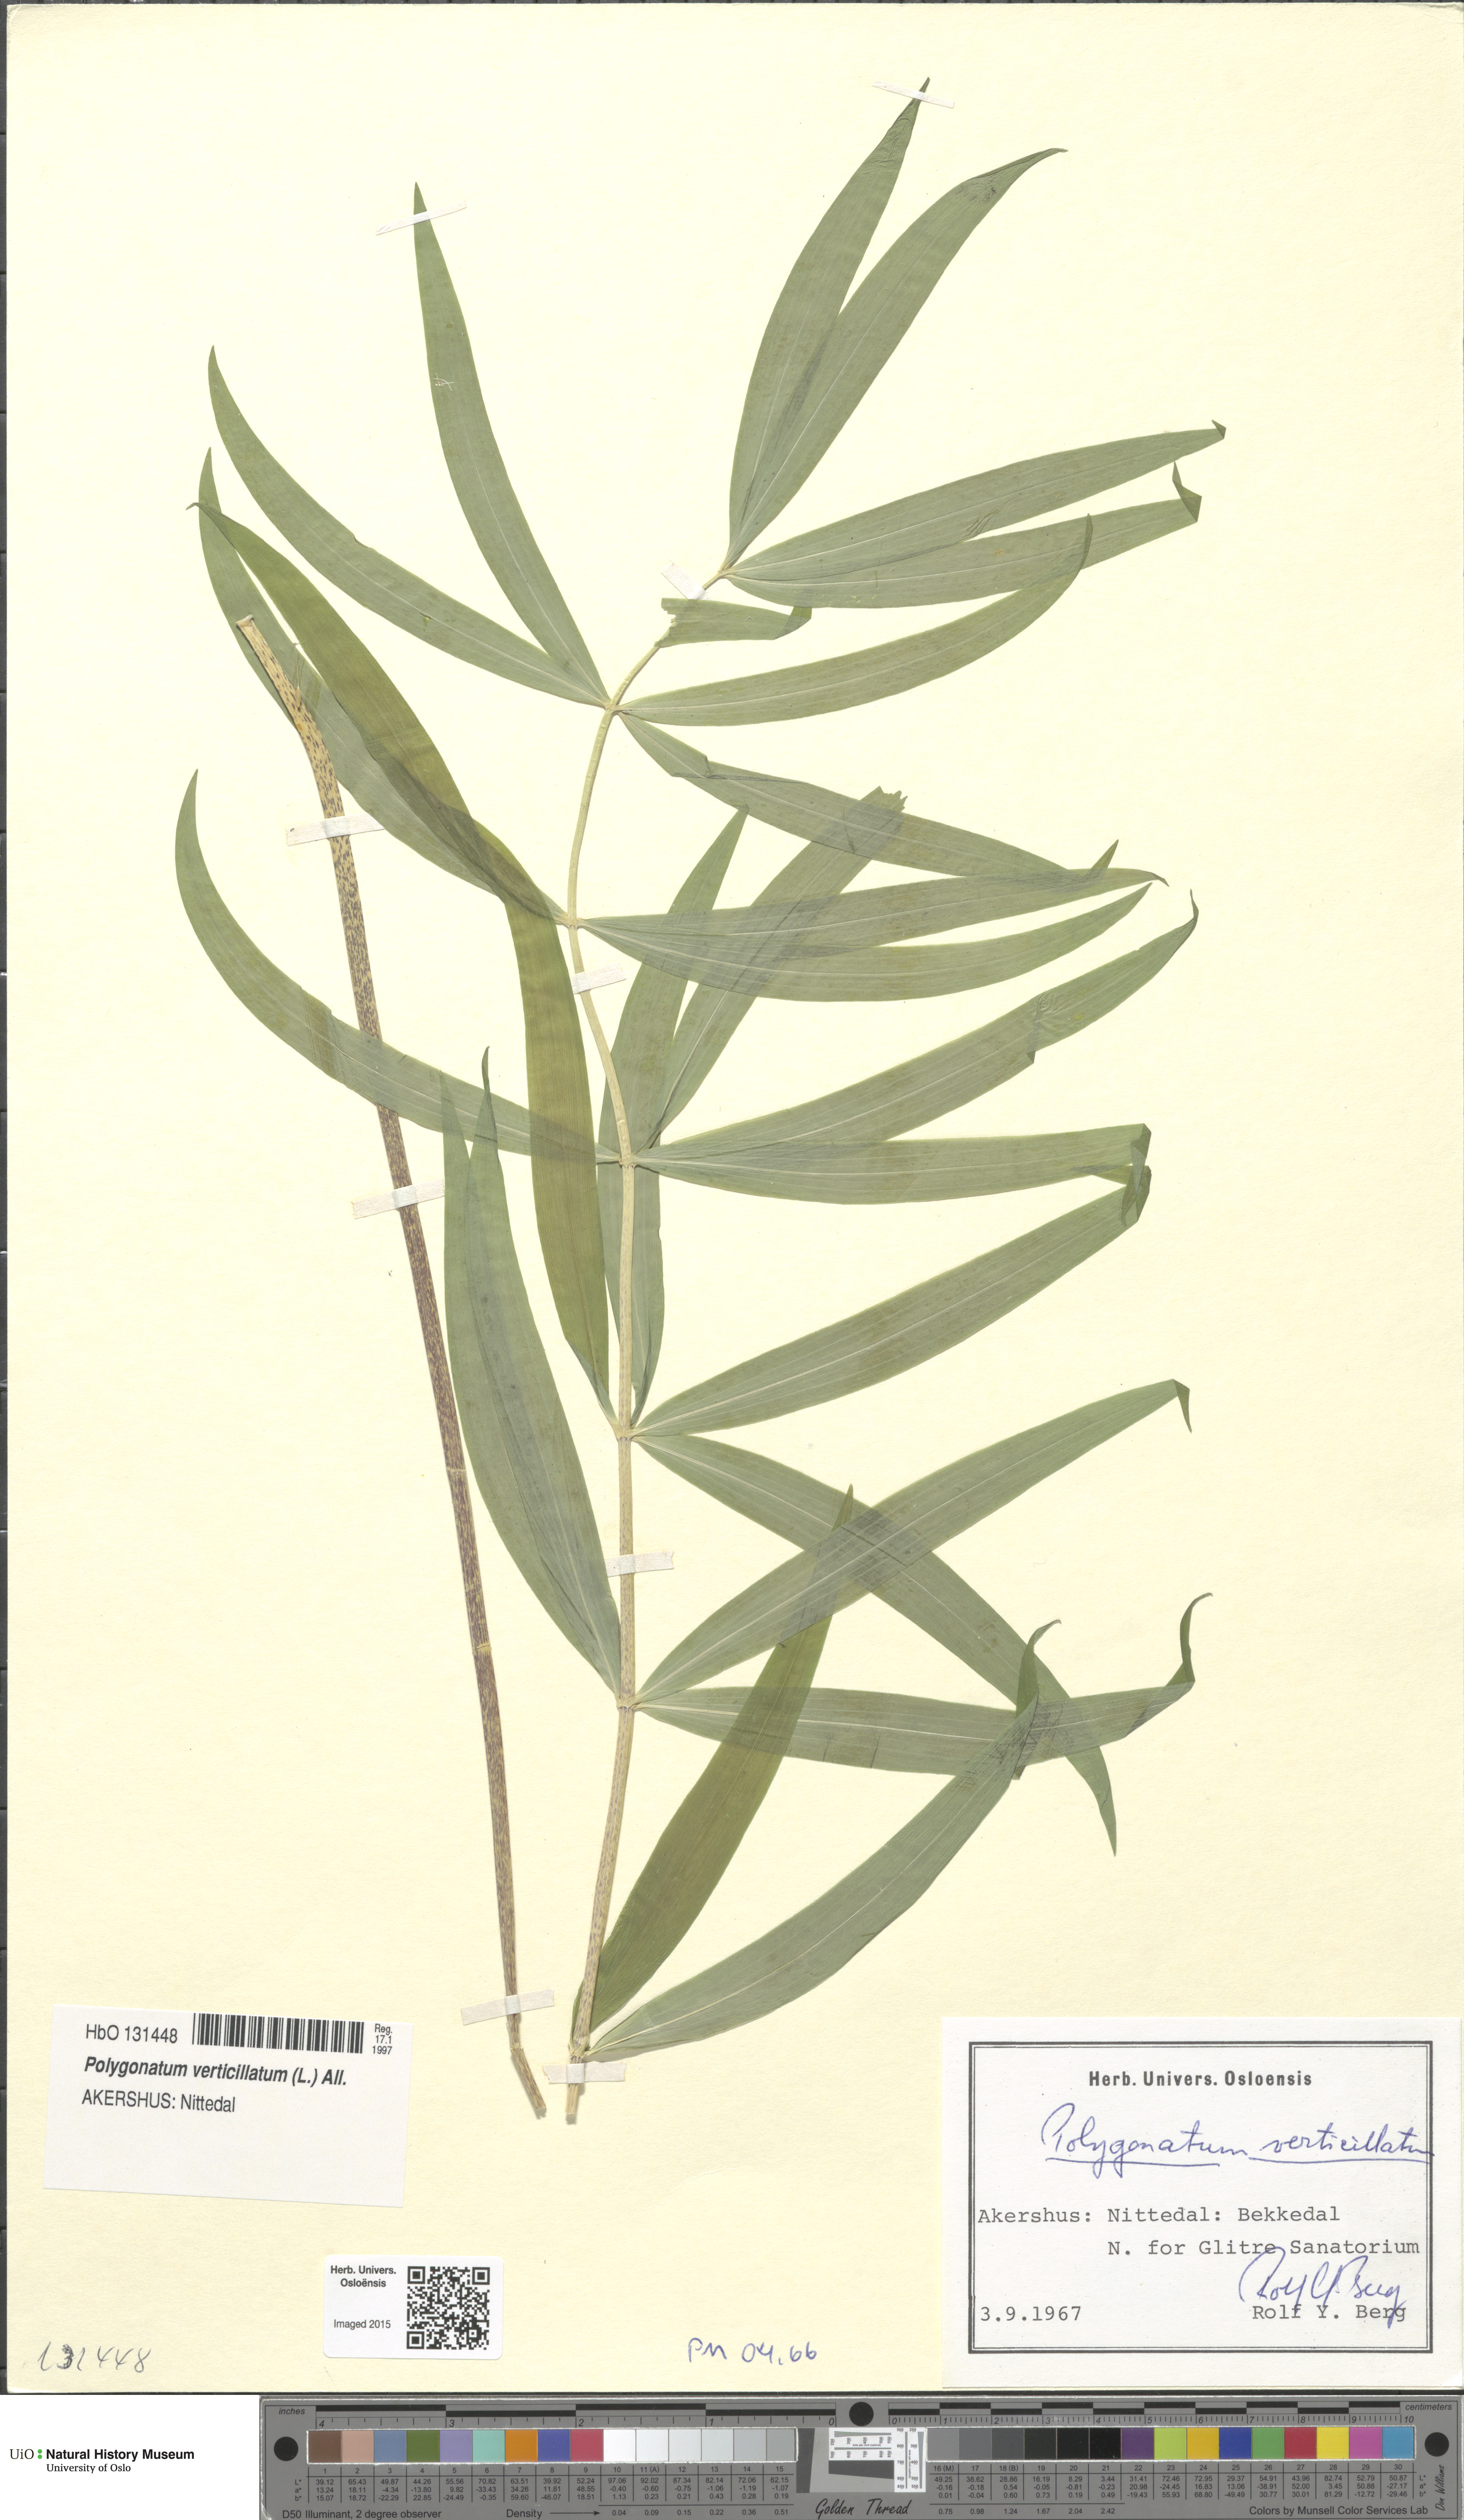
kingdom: Plantae
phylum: Tracheophyta
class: Liliopsida
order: Asparagales
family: Asparagaceae
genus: Polygonatum
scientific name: Polygonatum verticillatum
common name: Whorled solomon's-seal
